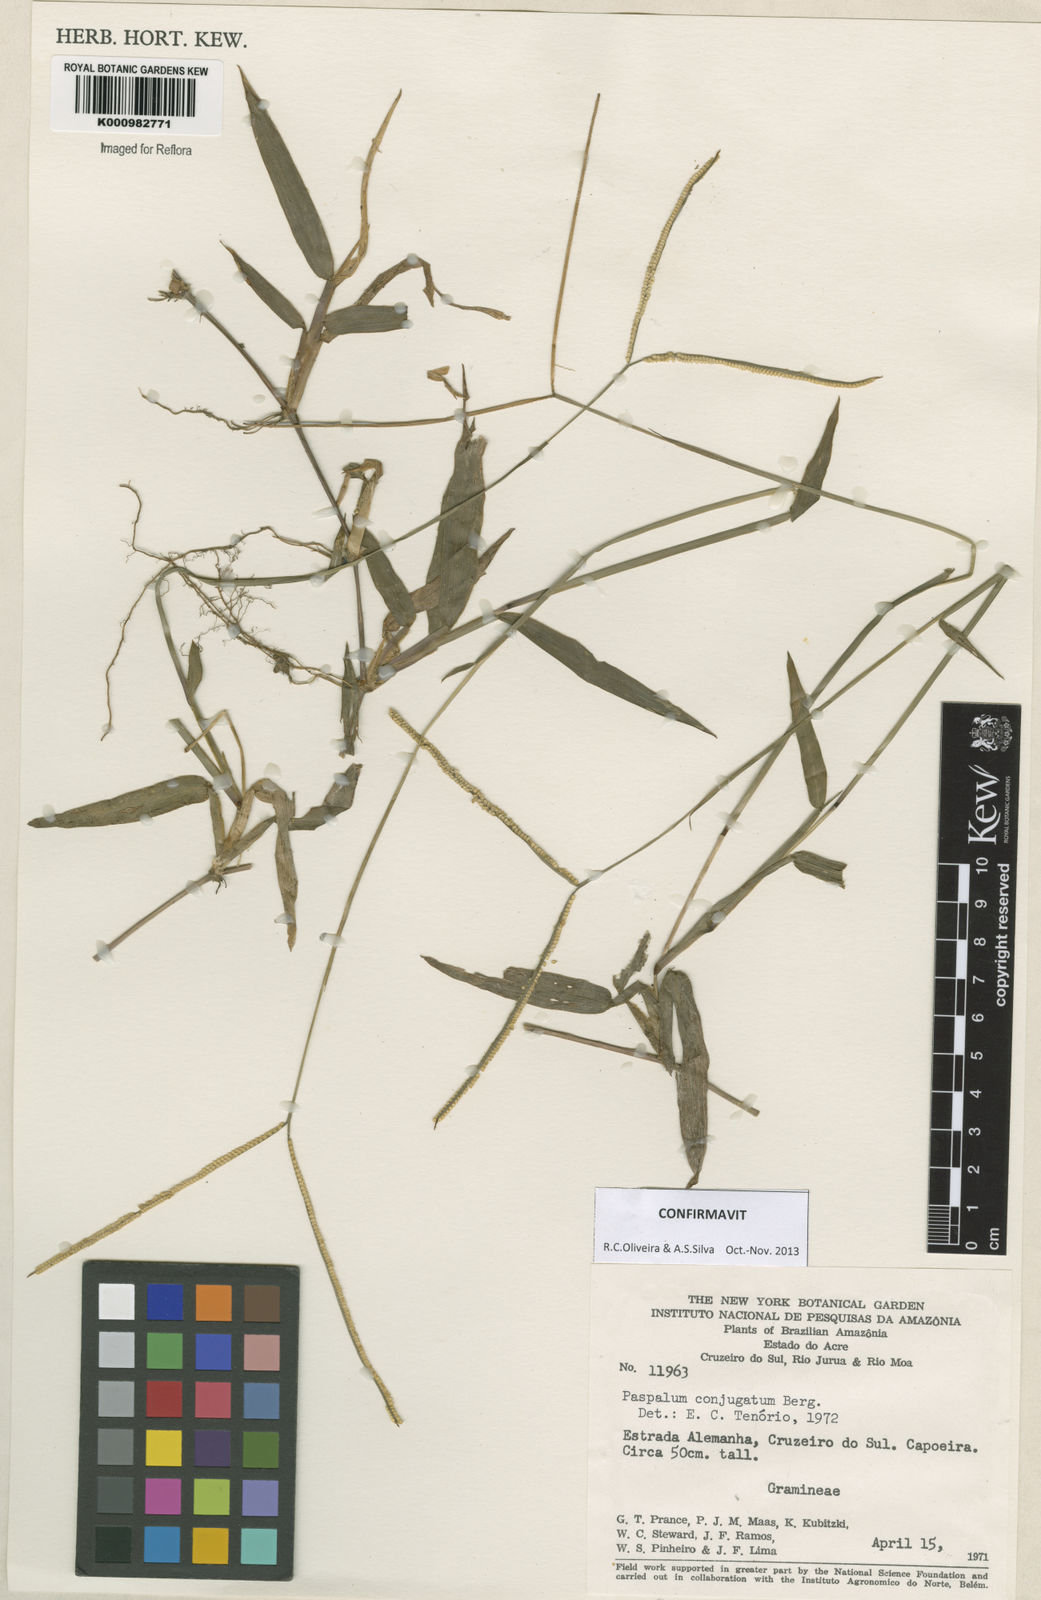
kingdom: Plantae
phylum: Tracheophyta
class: Liliopsida
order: Poales
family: Poaceae
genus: Paspalum
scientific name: Paspalum conjugatum
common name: Hilograss
